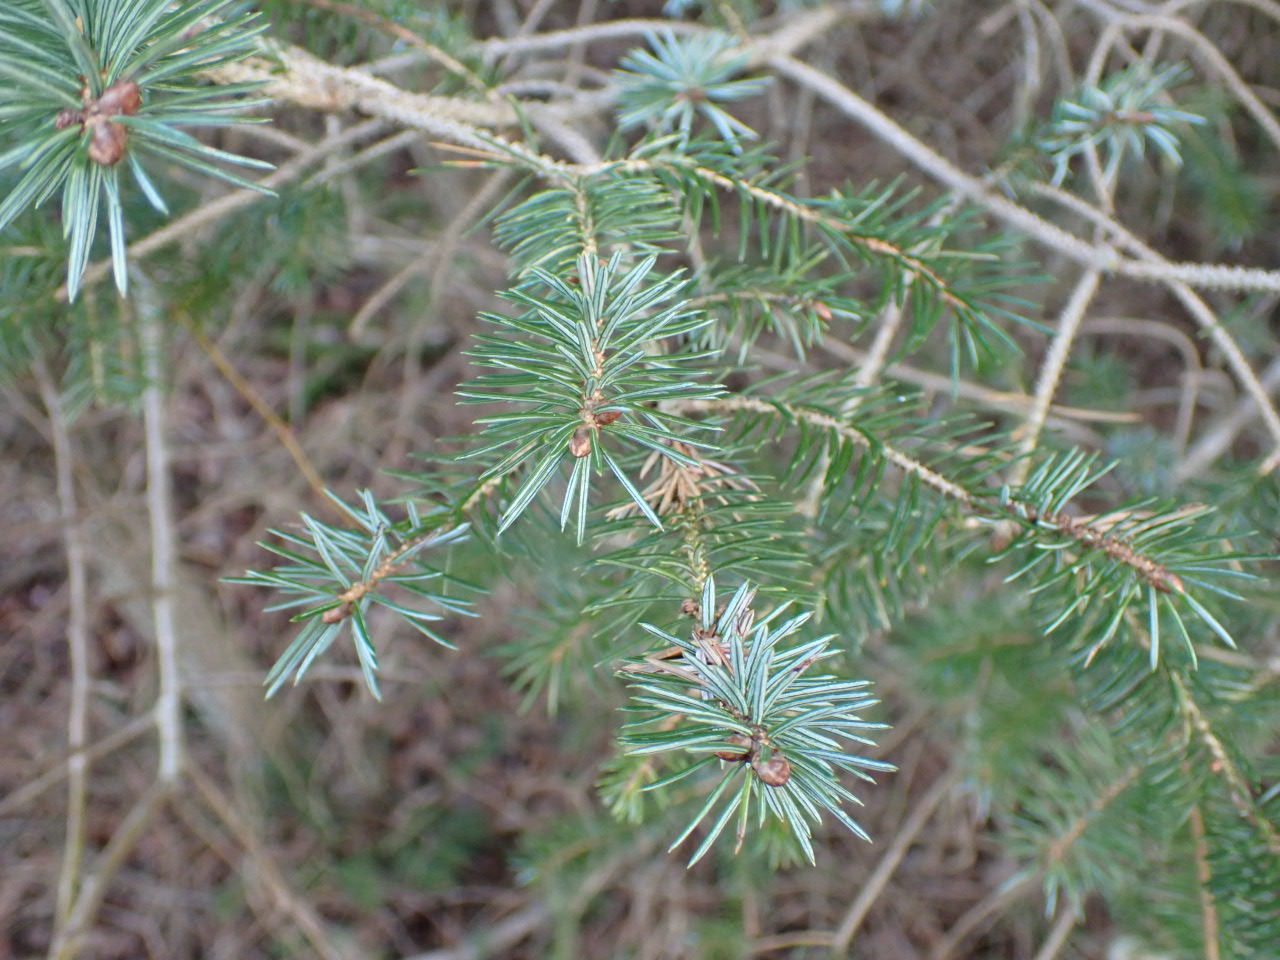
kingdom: Plantae
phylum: Tracheophyta
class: Pinopsida
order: Pinales
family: Pinaceae
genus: Picea
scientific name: Picea sitchensis
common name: Sitka-gran
